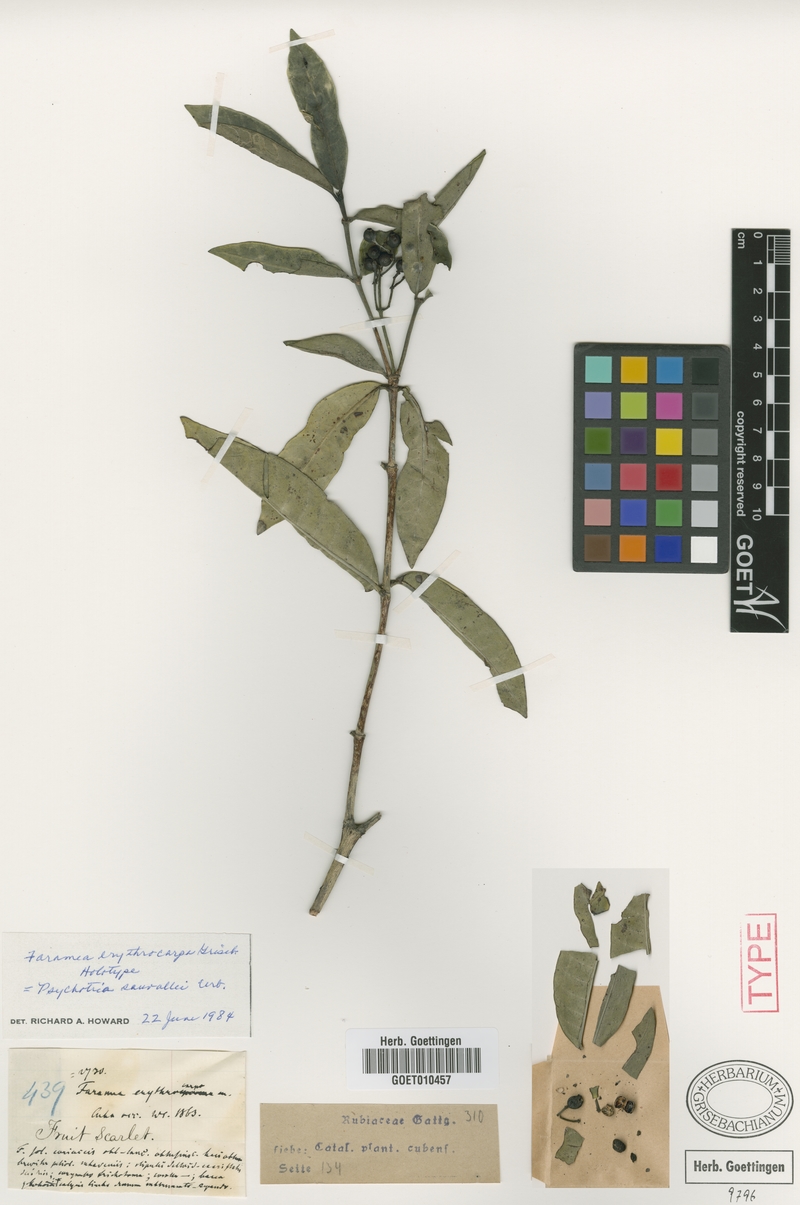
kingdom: Plantae
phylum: Tracheophyta
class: Magnoliopsida
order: Gentianales
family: Rubiaceae
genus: Psychotria
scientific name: Psychotria sauvallei
